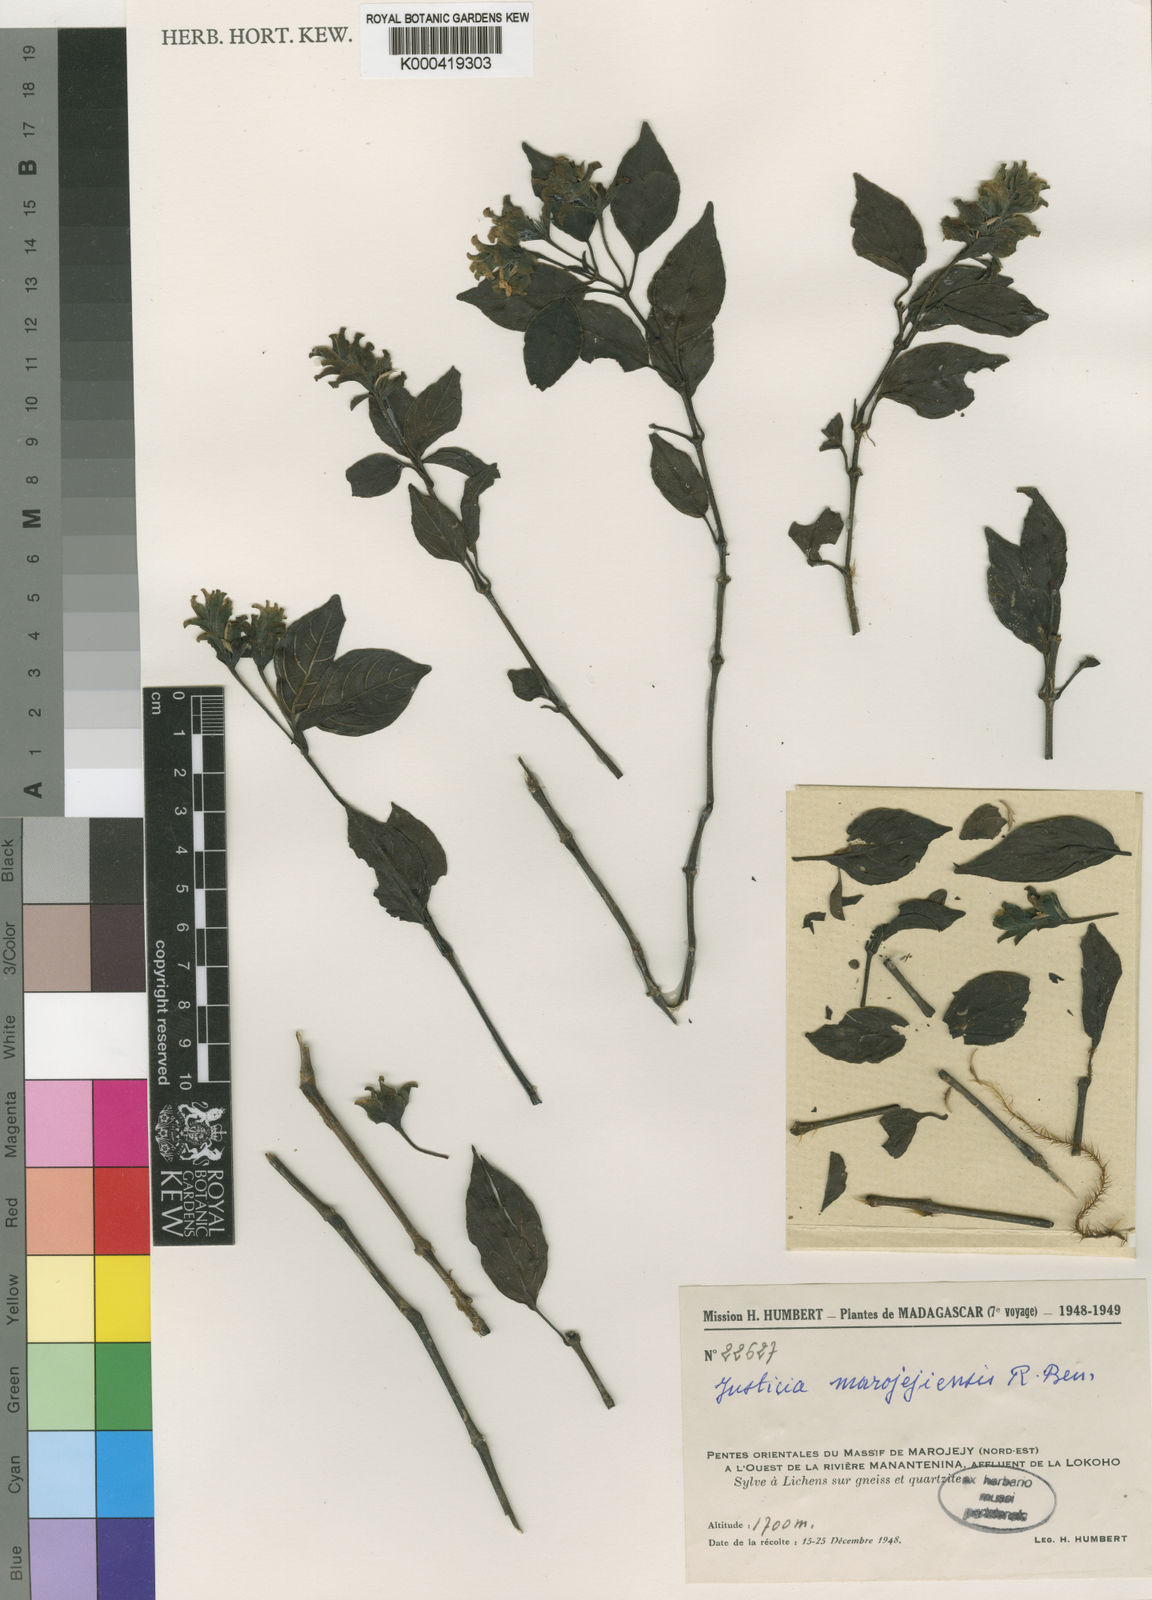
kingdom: Plantae
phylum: Tracheophyta
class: Magnoliopsida
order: Lamiales
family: Acanthaceae
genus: Justicia
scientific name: Justicia marojejiensis
